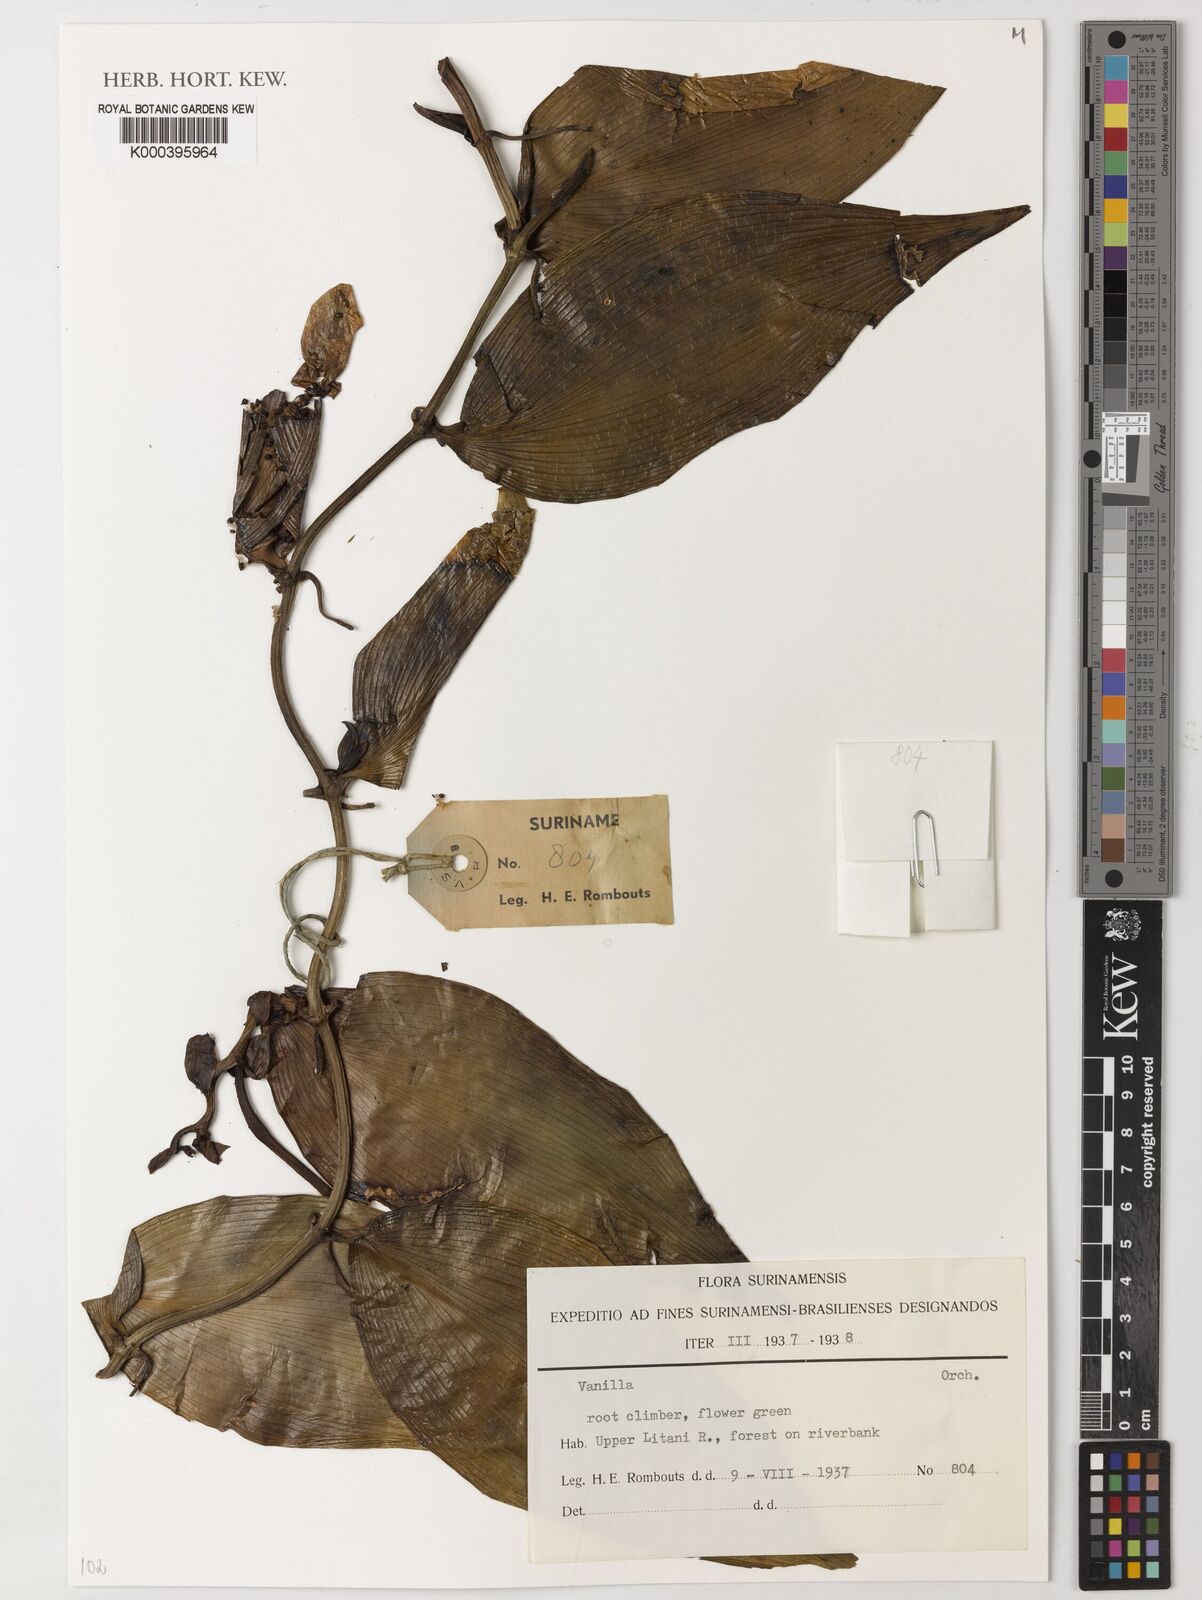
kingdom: Plantae
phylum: Tracheophyta
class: Liliopsida
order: Asparagales
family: Orchidaceae
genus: Vanilla
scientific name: Vanilla
